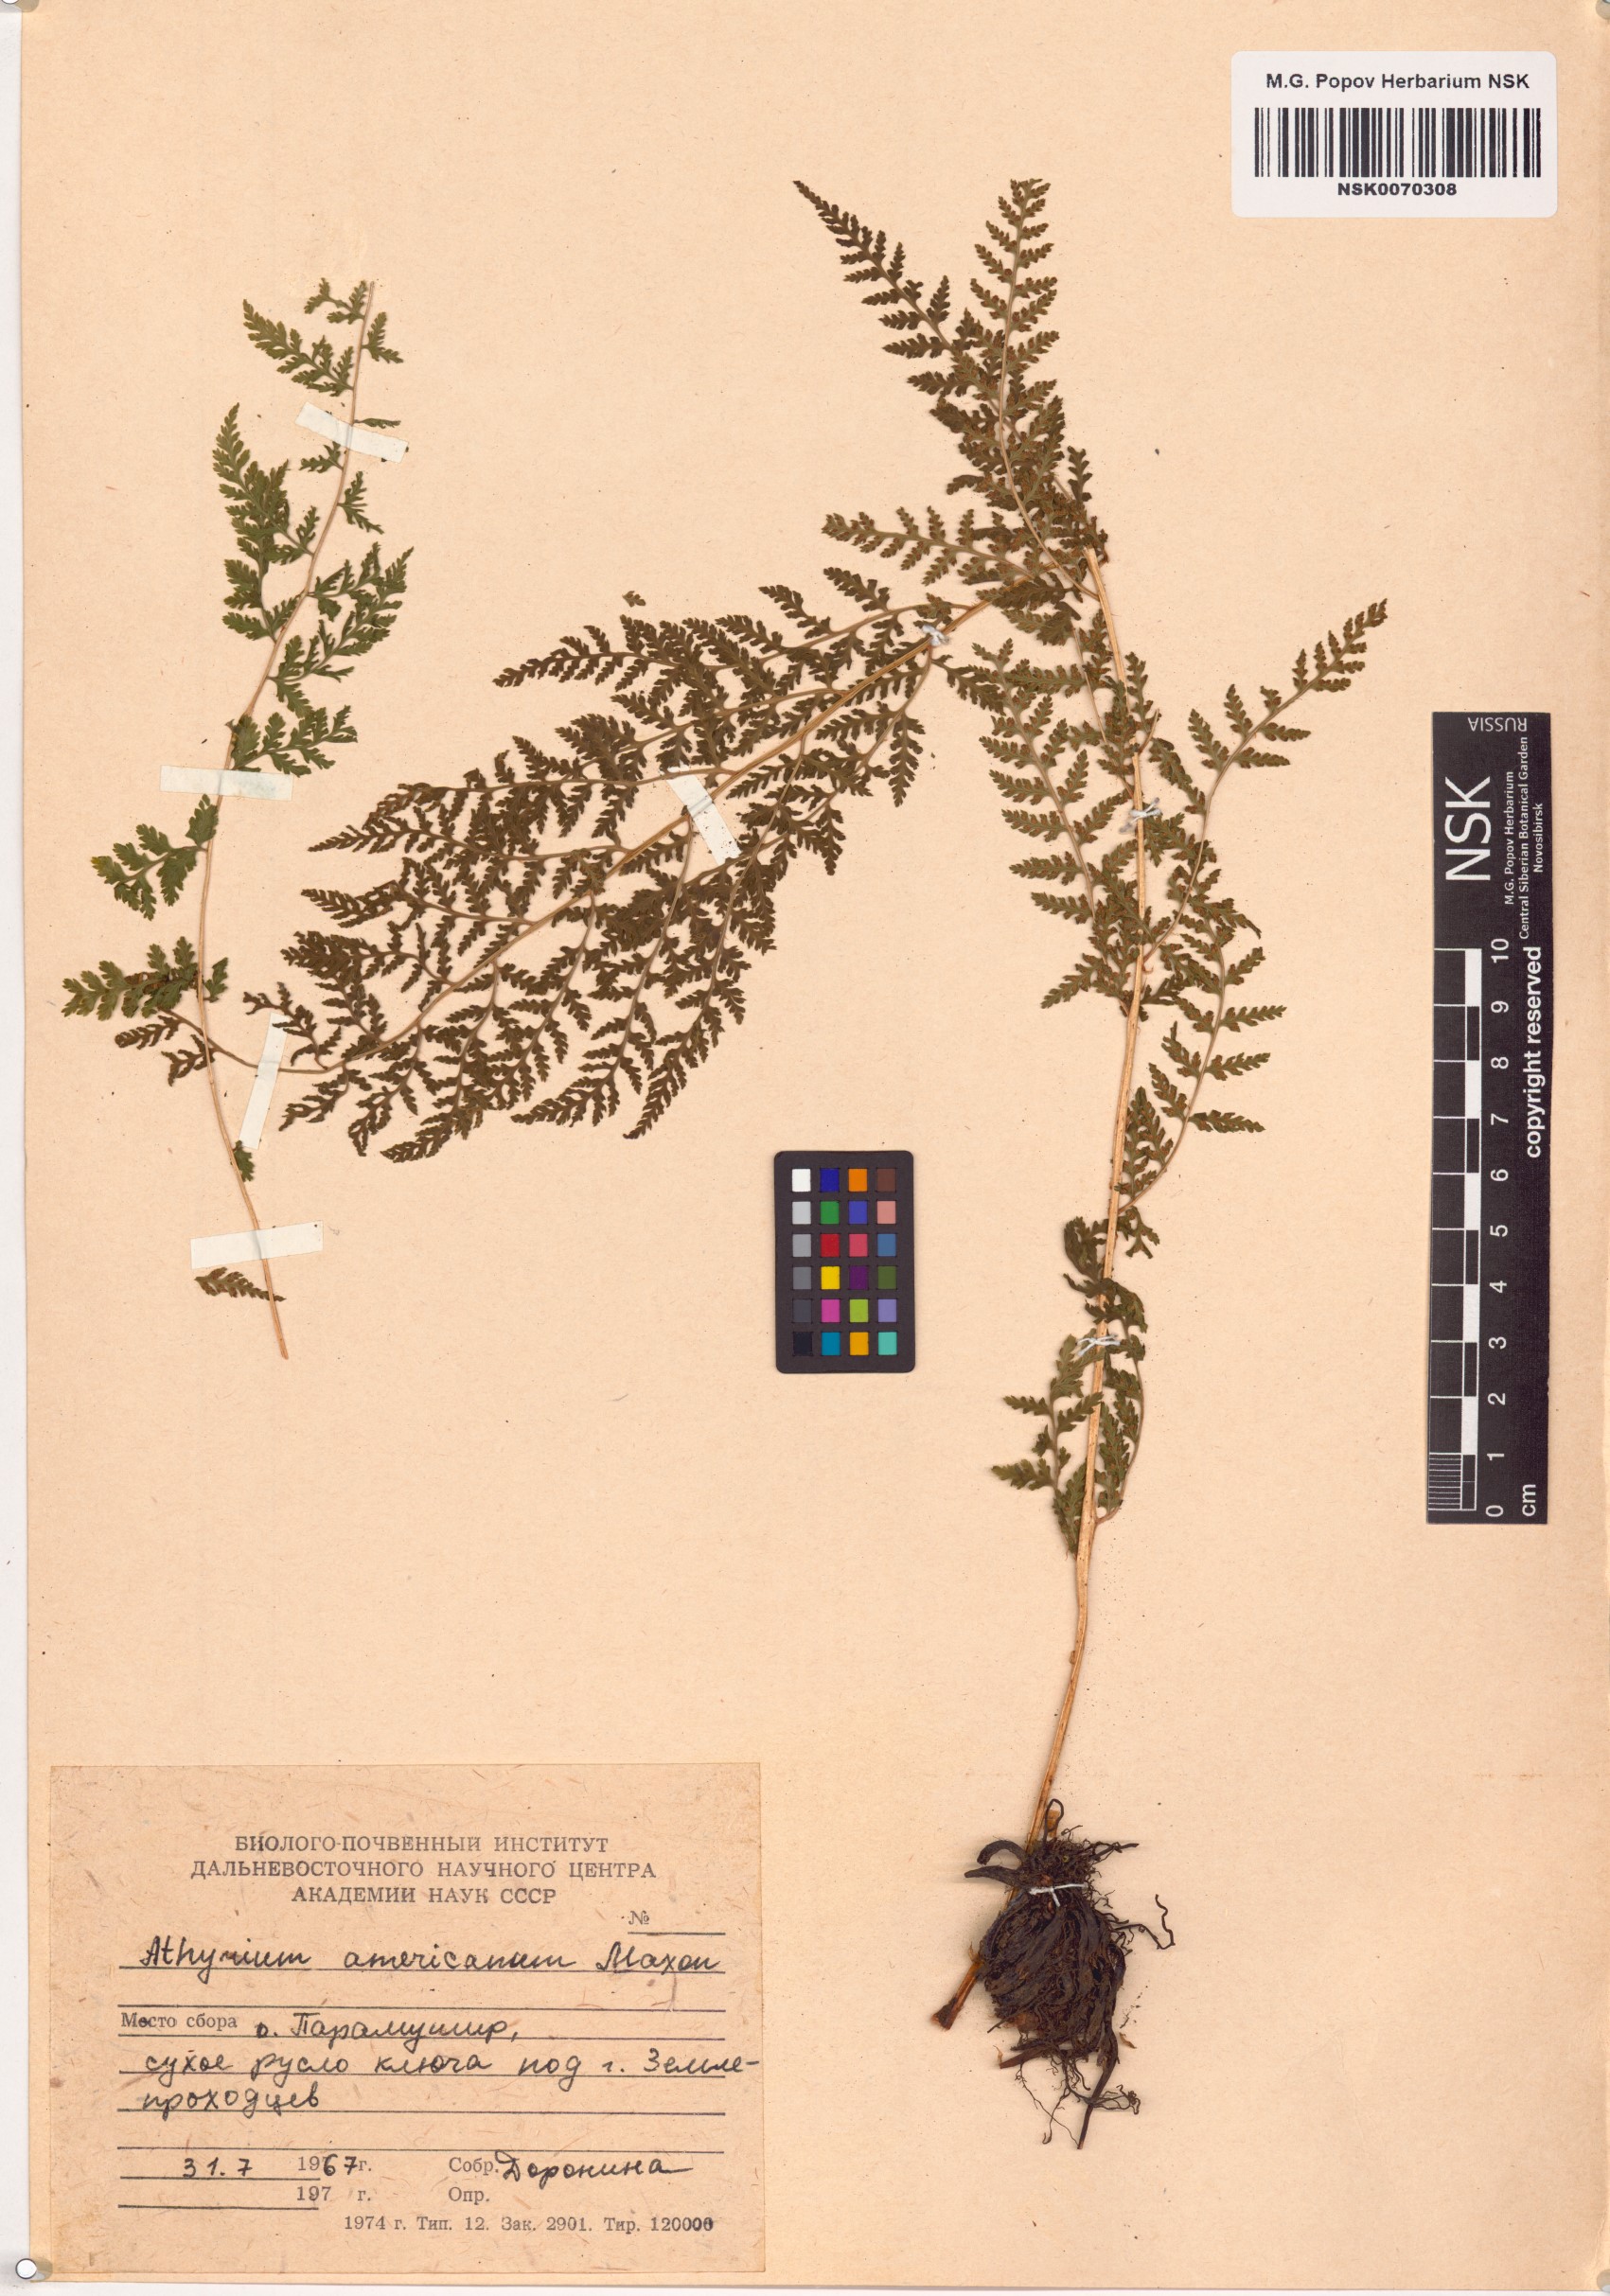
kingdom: Plantae
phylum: Tracheophyta
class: Polypodiopsida
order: Polypodiales
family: Athyriaceae
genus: Athyrium
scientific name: Athyrium americanum
